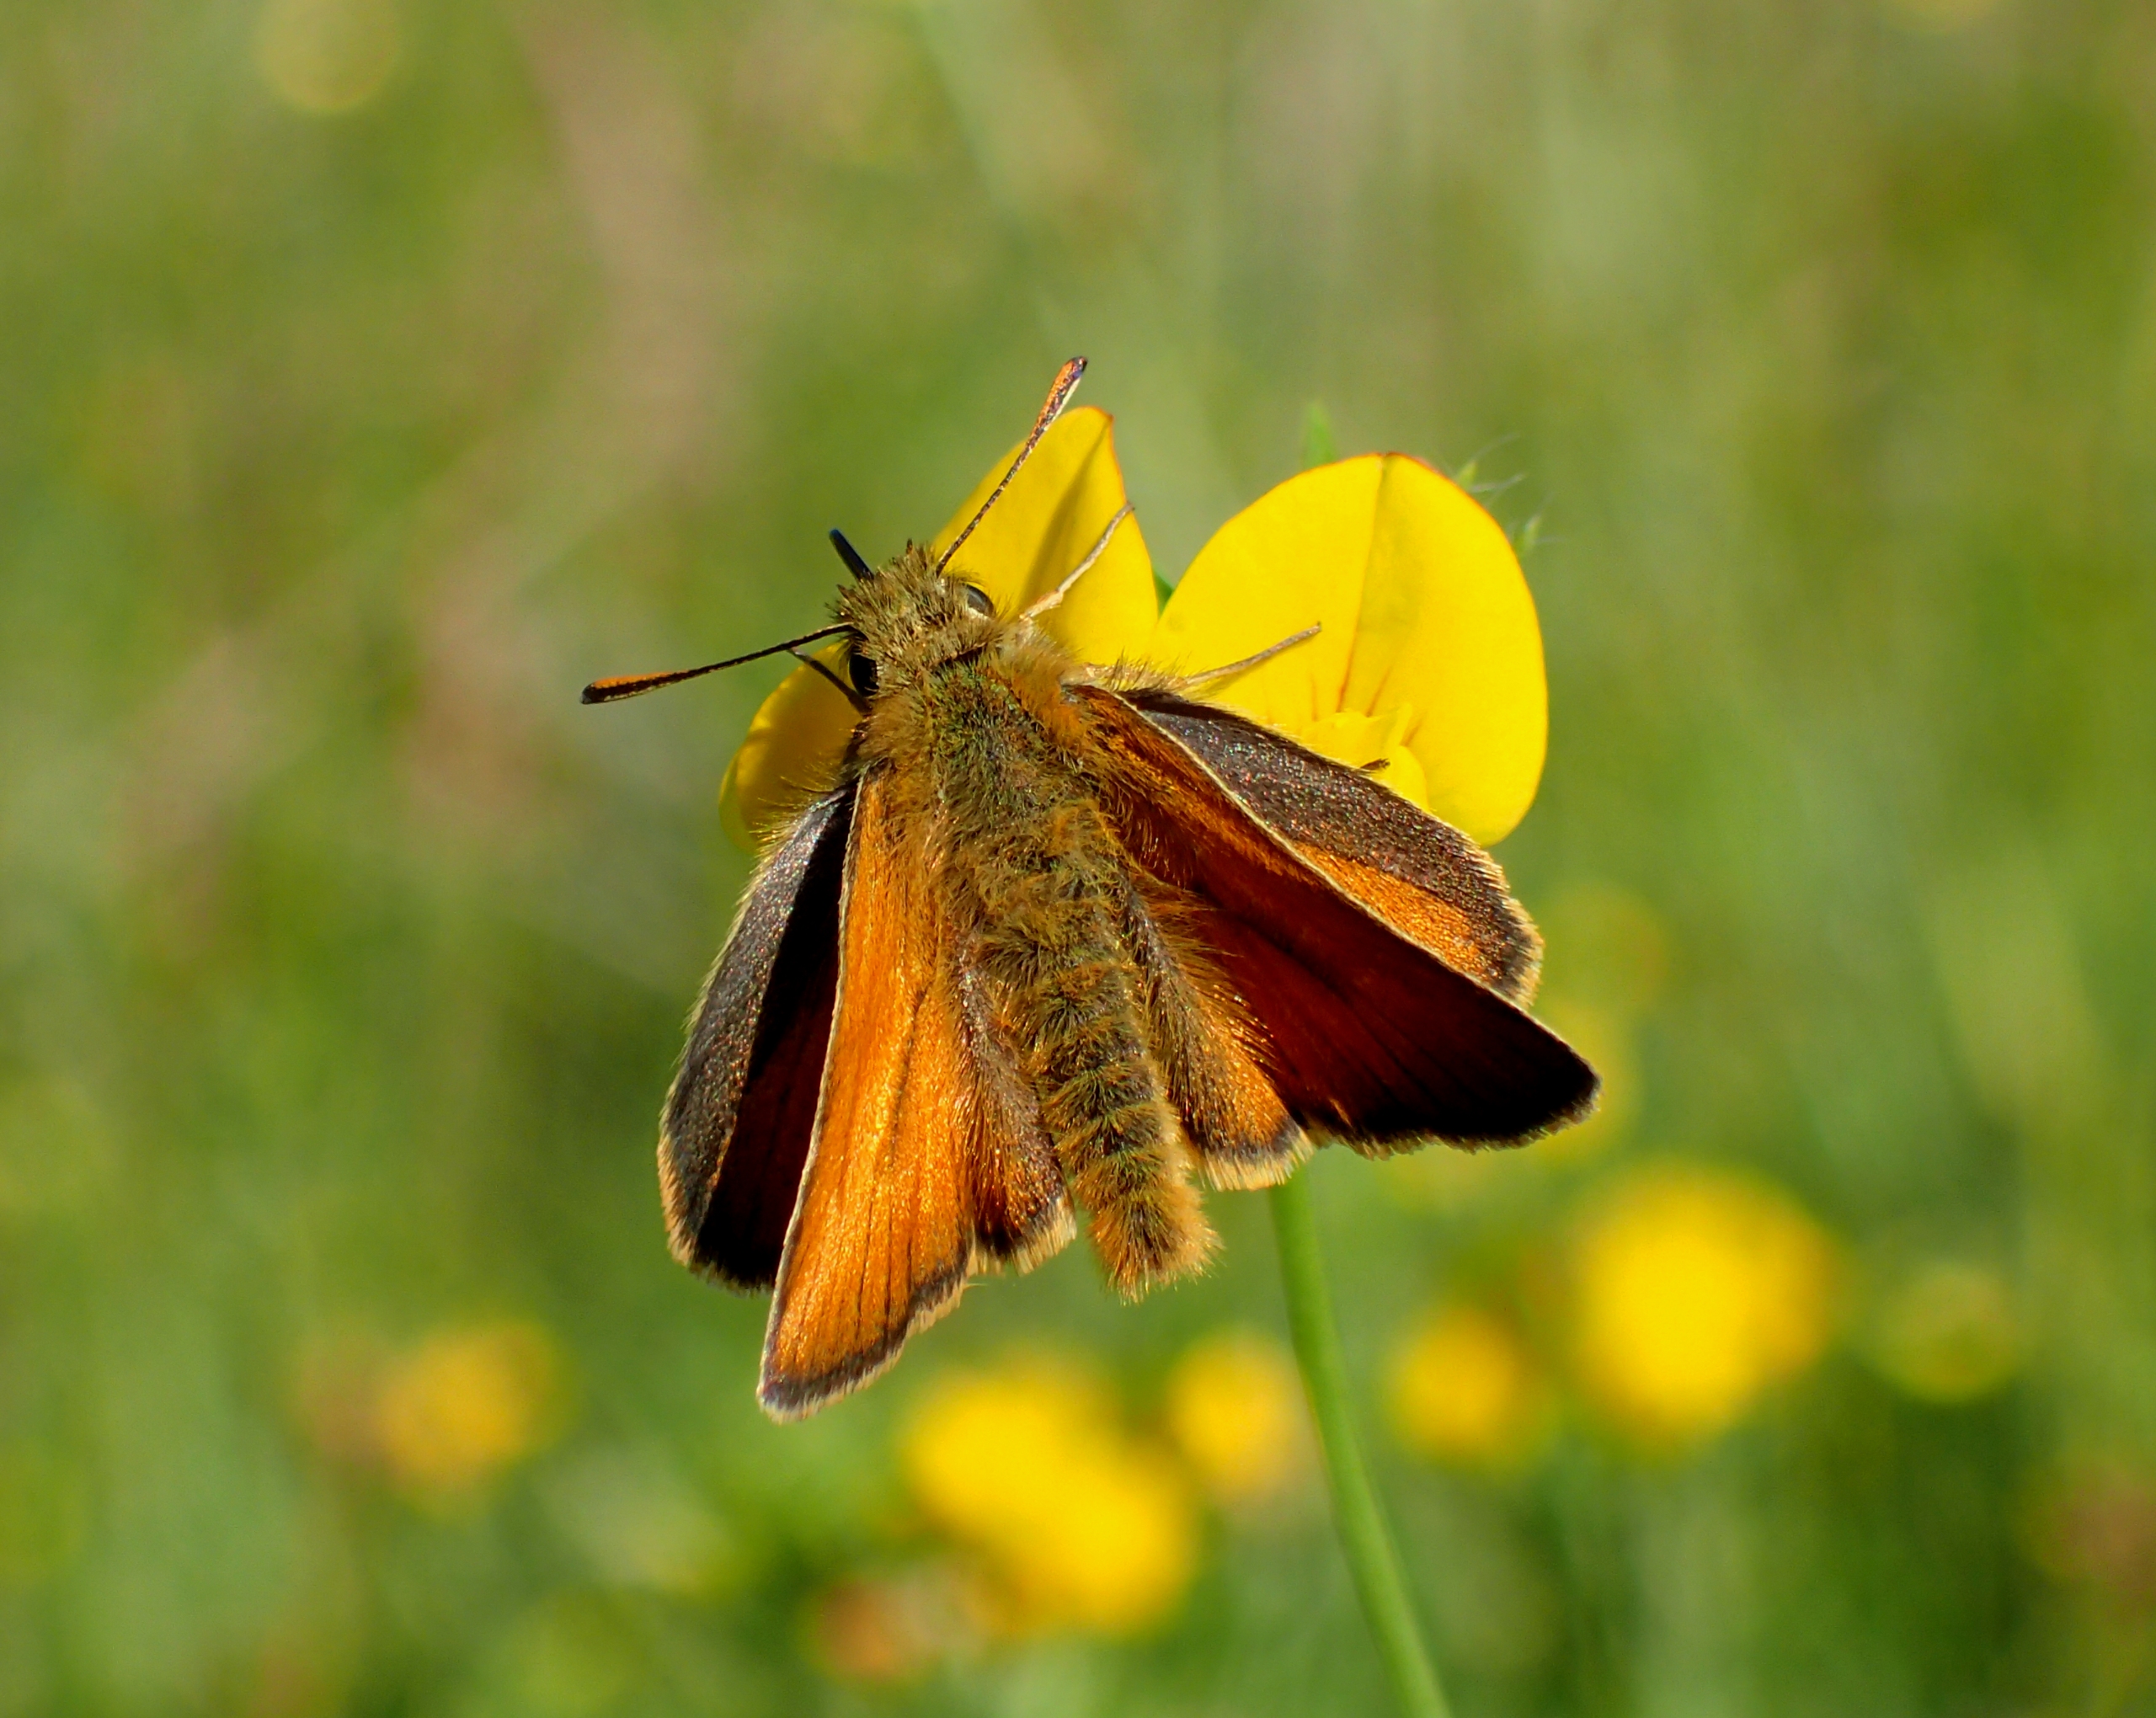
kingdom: Animalia
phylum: Arthropoda
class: Insecta
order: Lepidoptera
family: Hesperiidae
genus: Thymelicus
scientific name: Thymelicus sylvestris
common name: Skråstregbredpande
